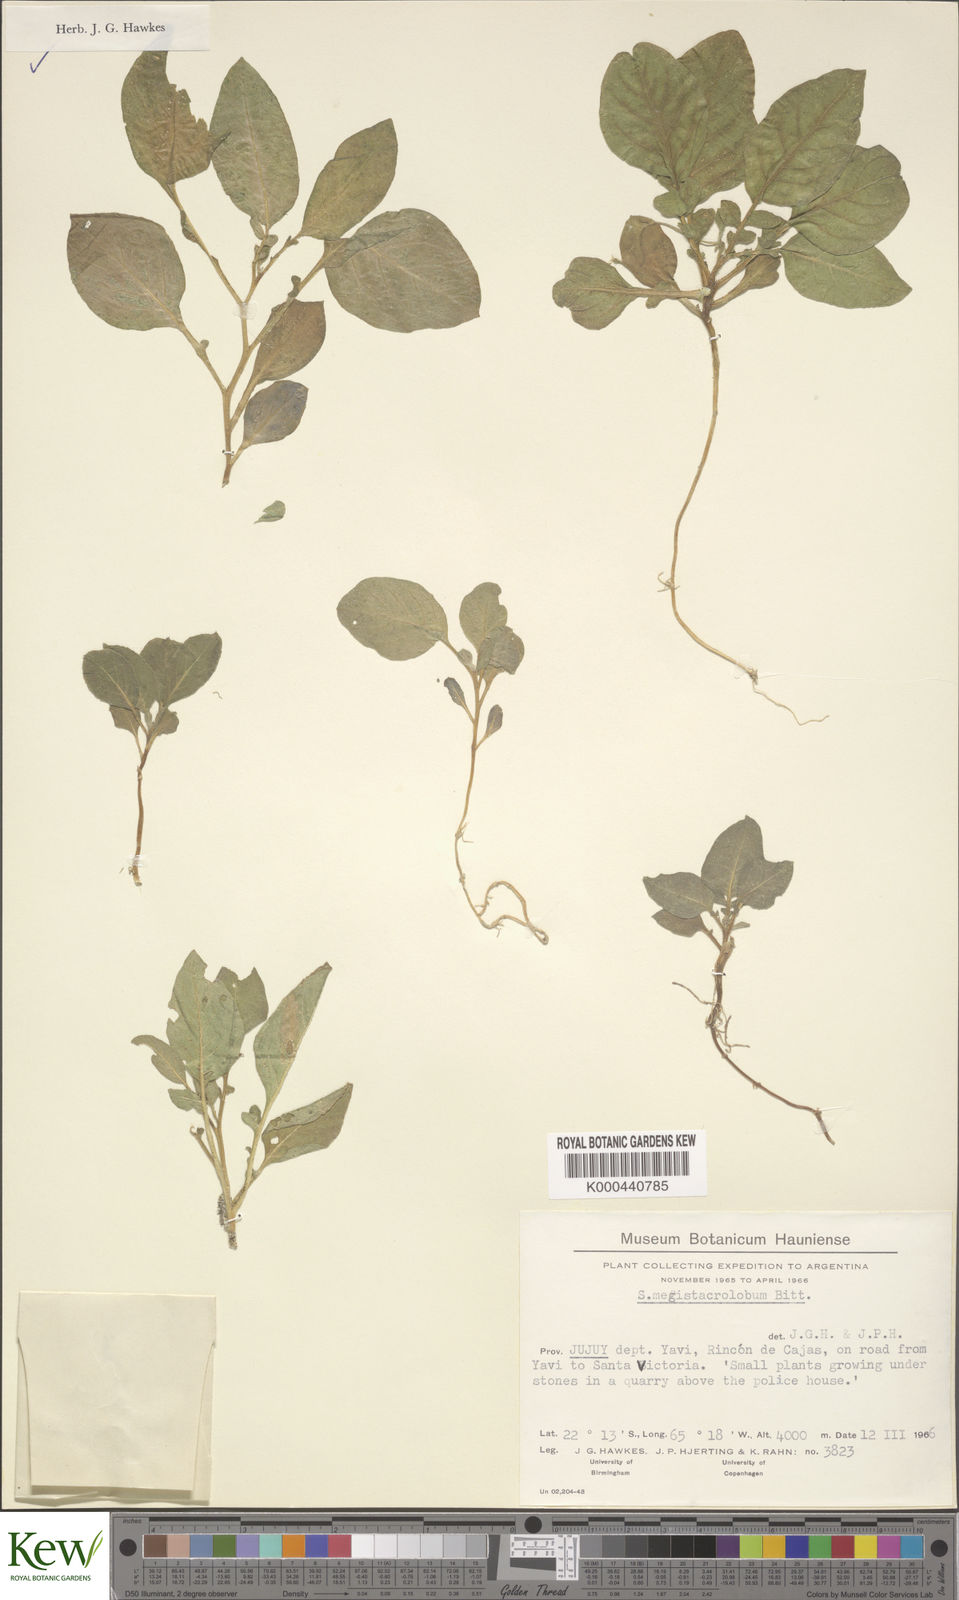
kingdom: Plantae
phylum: Tracheophyta
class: Magnoliopsida
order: Solanales
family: Solanaceae
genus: Solanum
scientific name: Solanum boliviense
